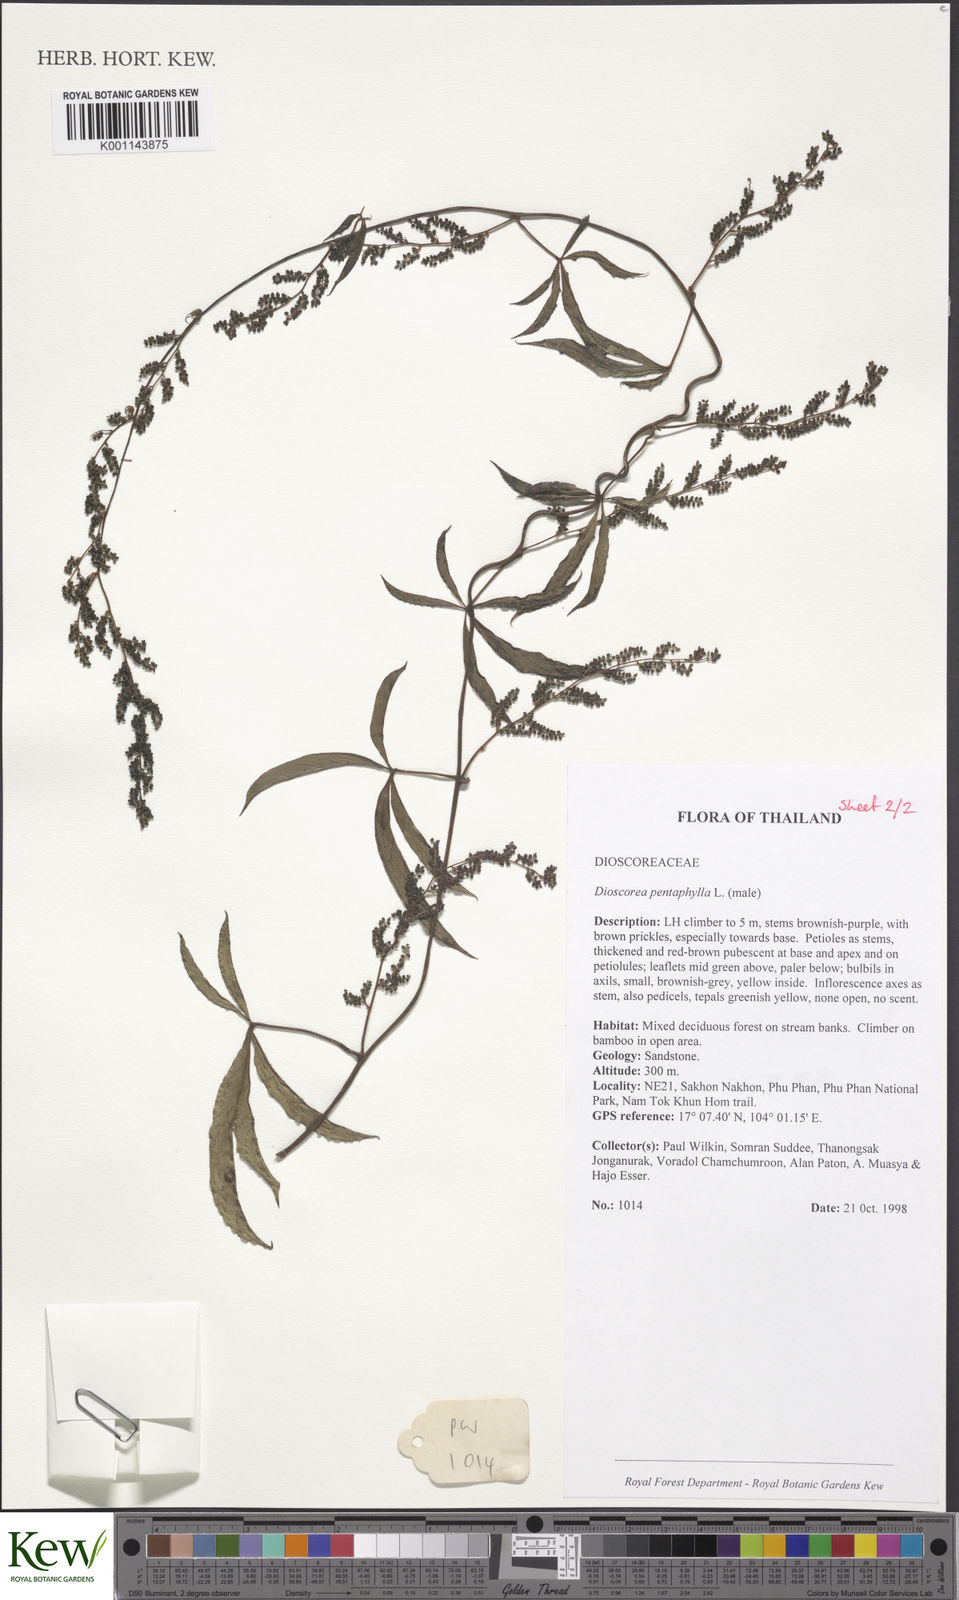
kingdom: Plantae
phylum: Tracheophyta
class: Liliopsida
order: Dioscoreales
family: Dioscoreaceae
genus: Dioscorea
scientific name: Dioscorea pentaphylla
